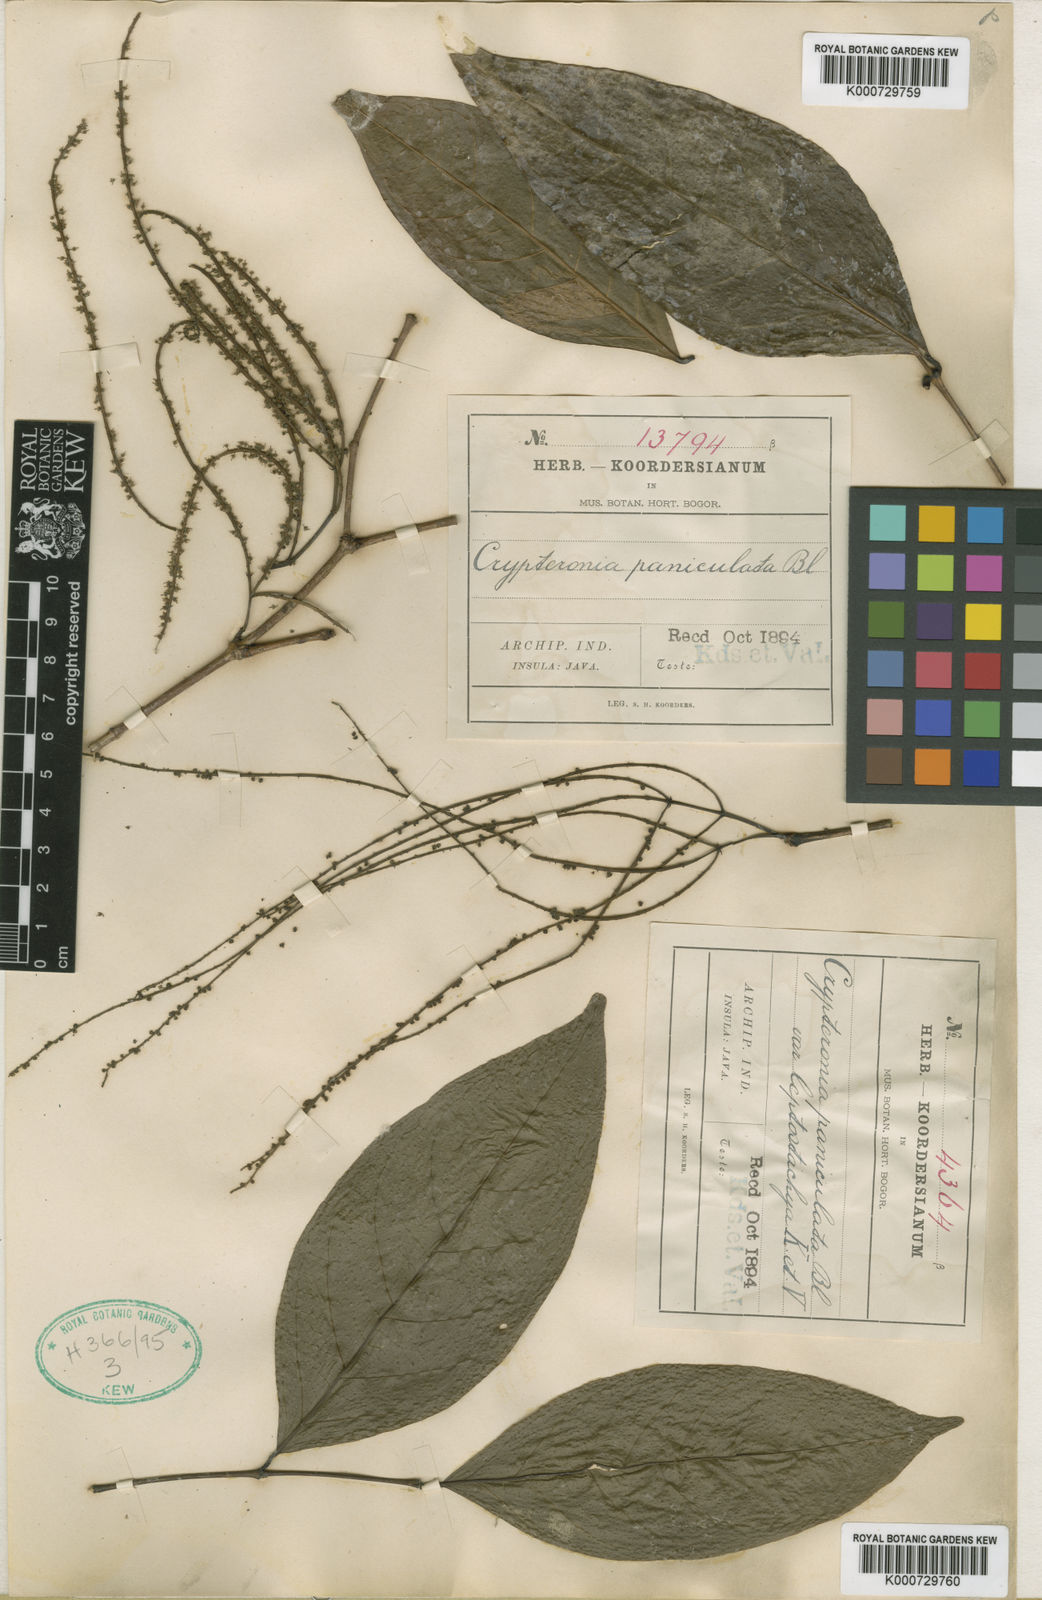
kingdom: Plantae
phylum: Tracheophyta
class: Magnoliopsida
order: Myrtales
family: Crypteroniaceae
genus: Crypteronia
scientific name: Crypteronia paniculata
